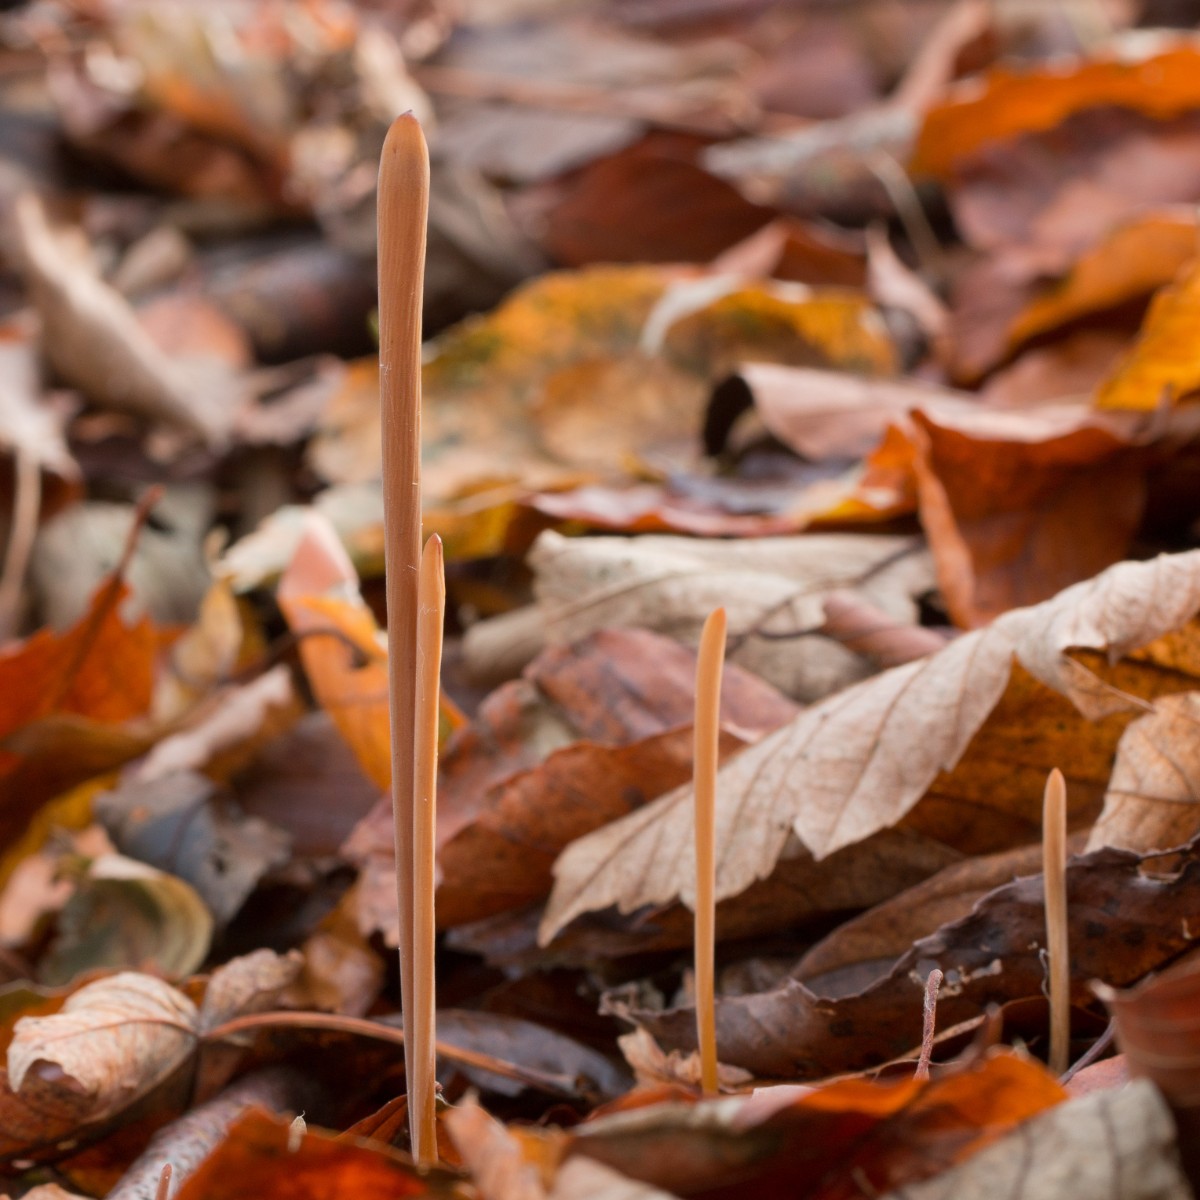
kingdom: Fungi
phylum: Basidiomycota
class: Agaricomycetes
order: Agaricales
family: Typhulaceae
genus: Typhula
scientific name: Typhula fistulosa
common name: pibet rørkølle
